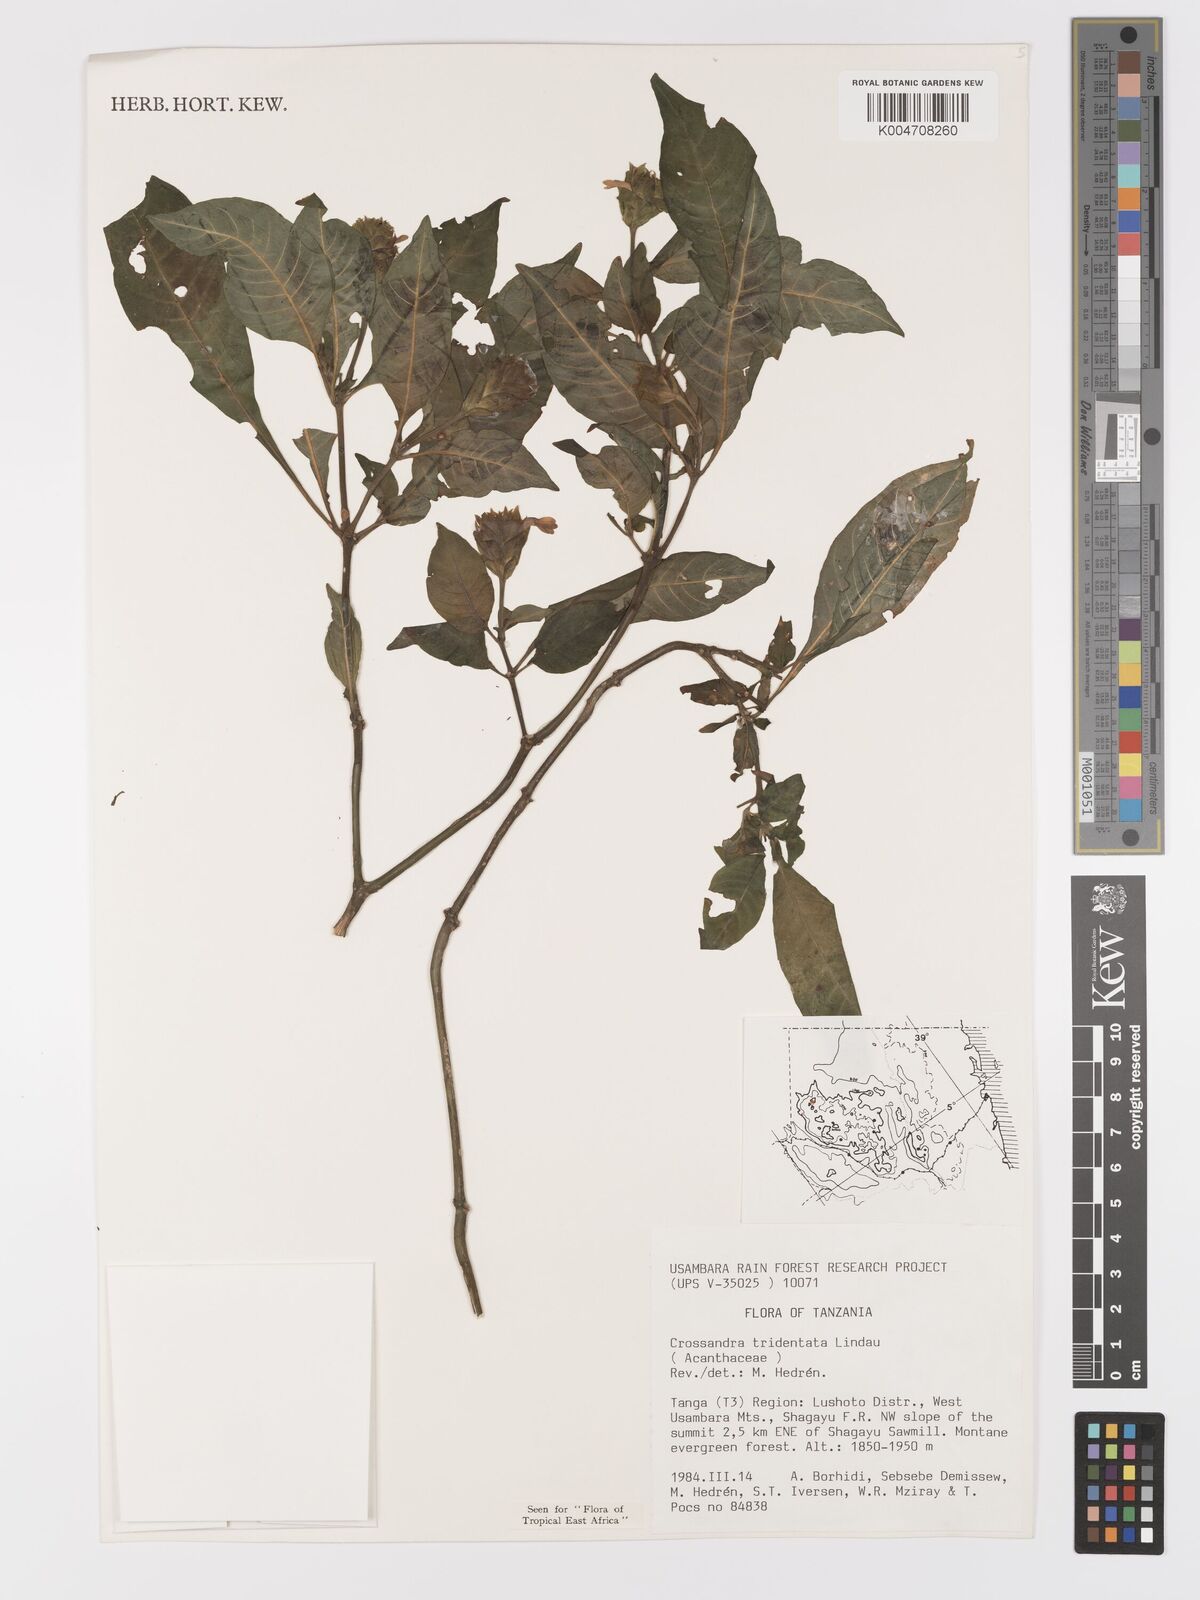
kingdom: Plantae
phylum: Tracheophyta
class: Magnoliopsida
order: Lamiales
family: Acanthaceae
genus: Crossandra
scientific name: Crossandra tridentata
